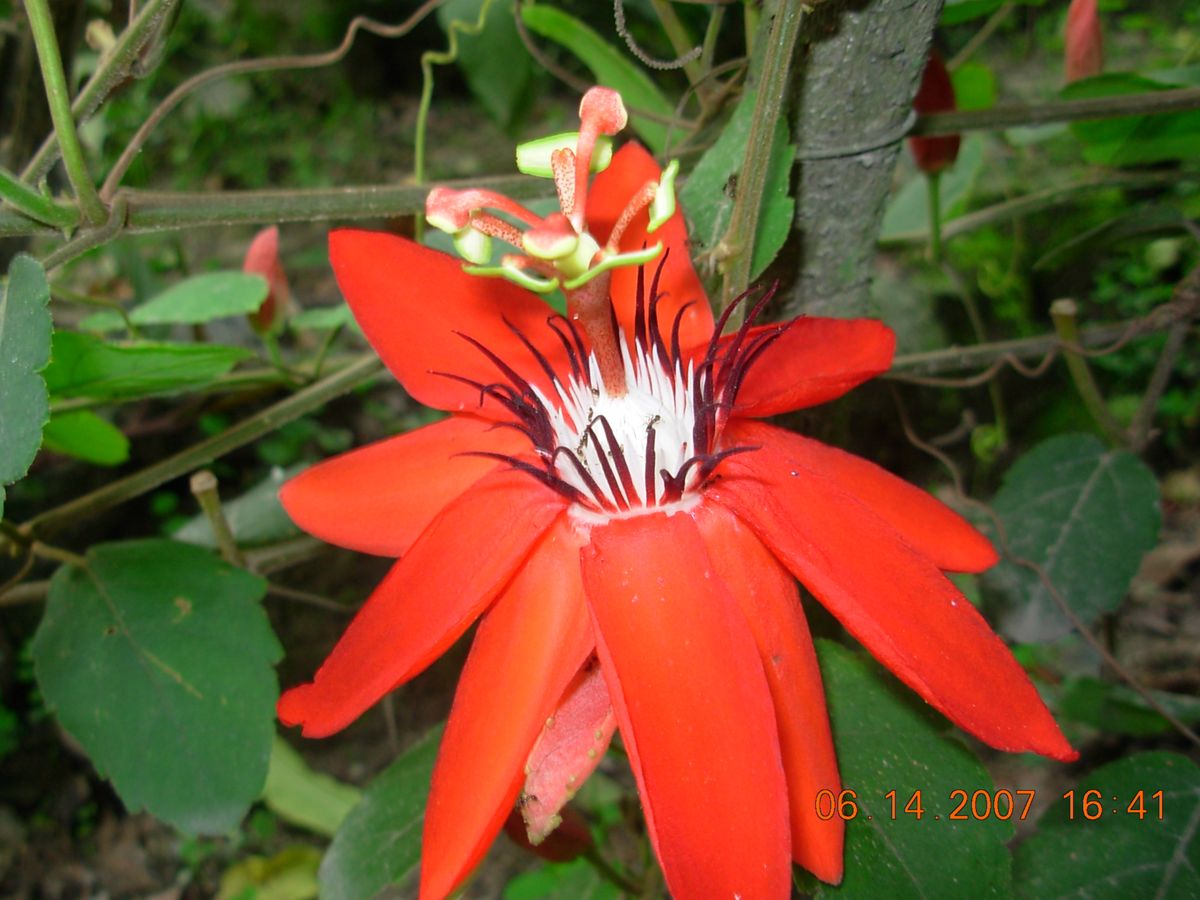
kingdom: Plantae
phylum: Tracheophyta
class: Magnoliopsida
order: Malpighiales
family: Passifloraceae
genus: Passiflora
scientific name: Passiflora miniata
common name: Red granadilla
